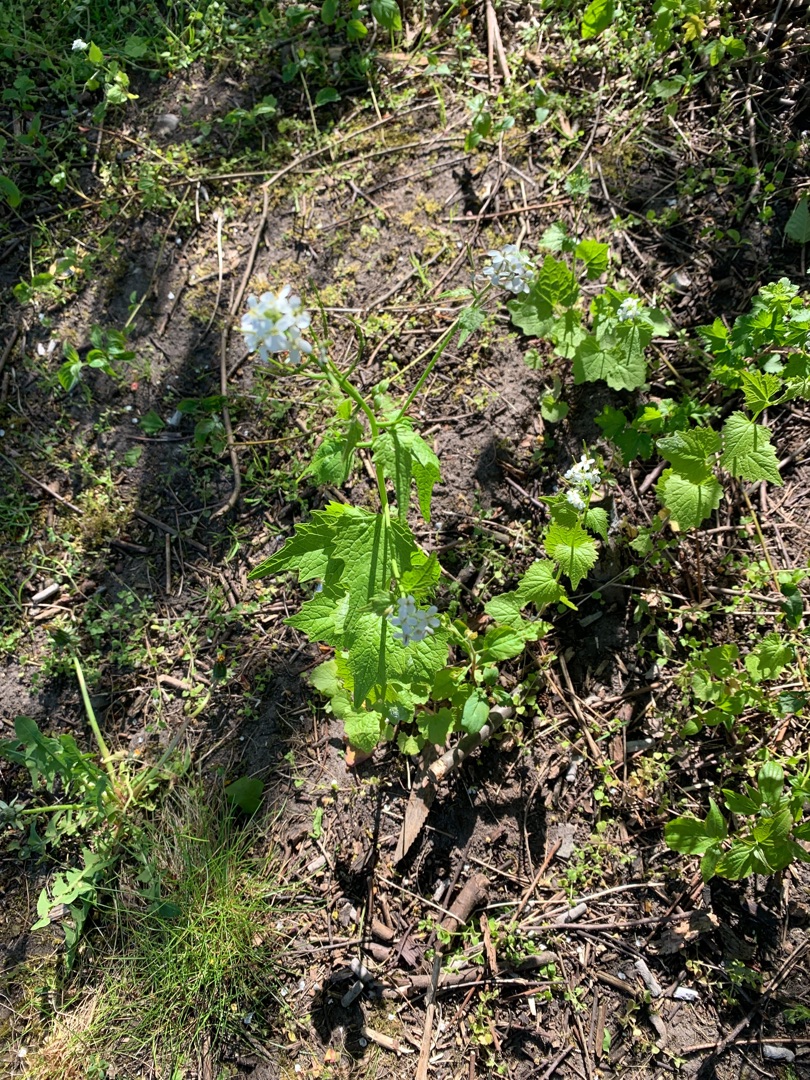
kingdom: Plantae
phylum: Tracheophyta
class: Magnoliopsida
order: Brassicales
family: Brassicaceae
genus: Alliaria
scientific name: Alliaria petiolata
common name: Løgkarse
